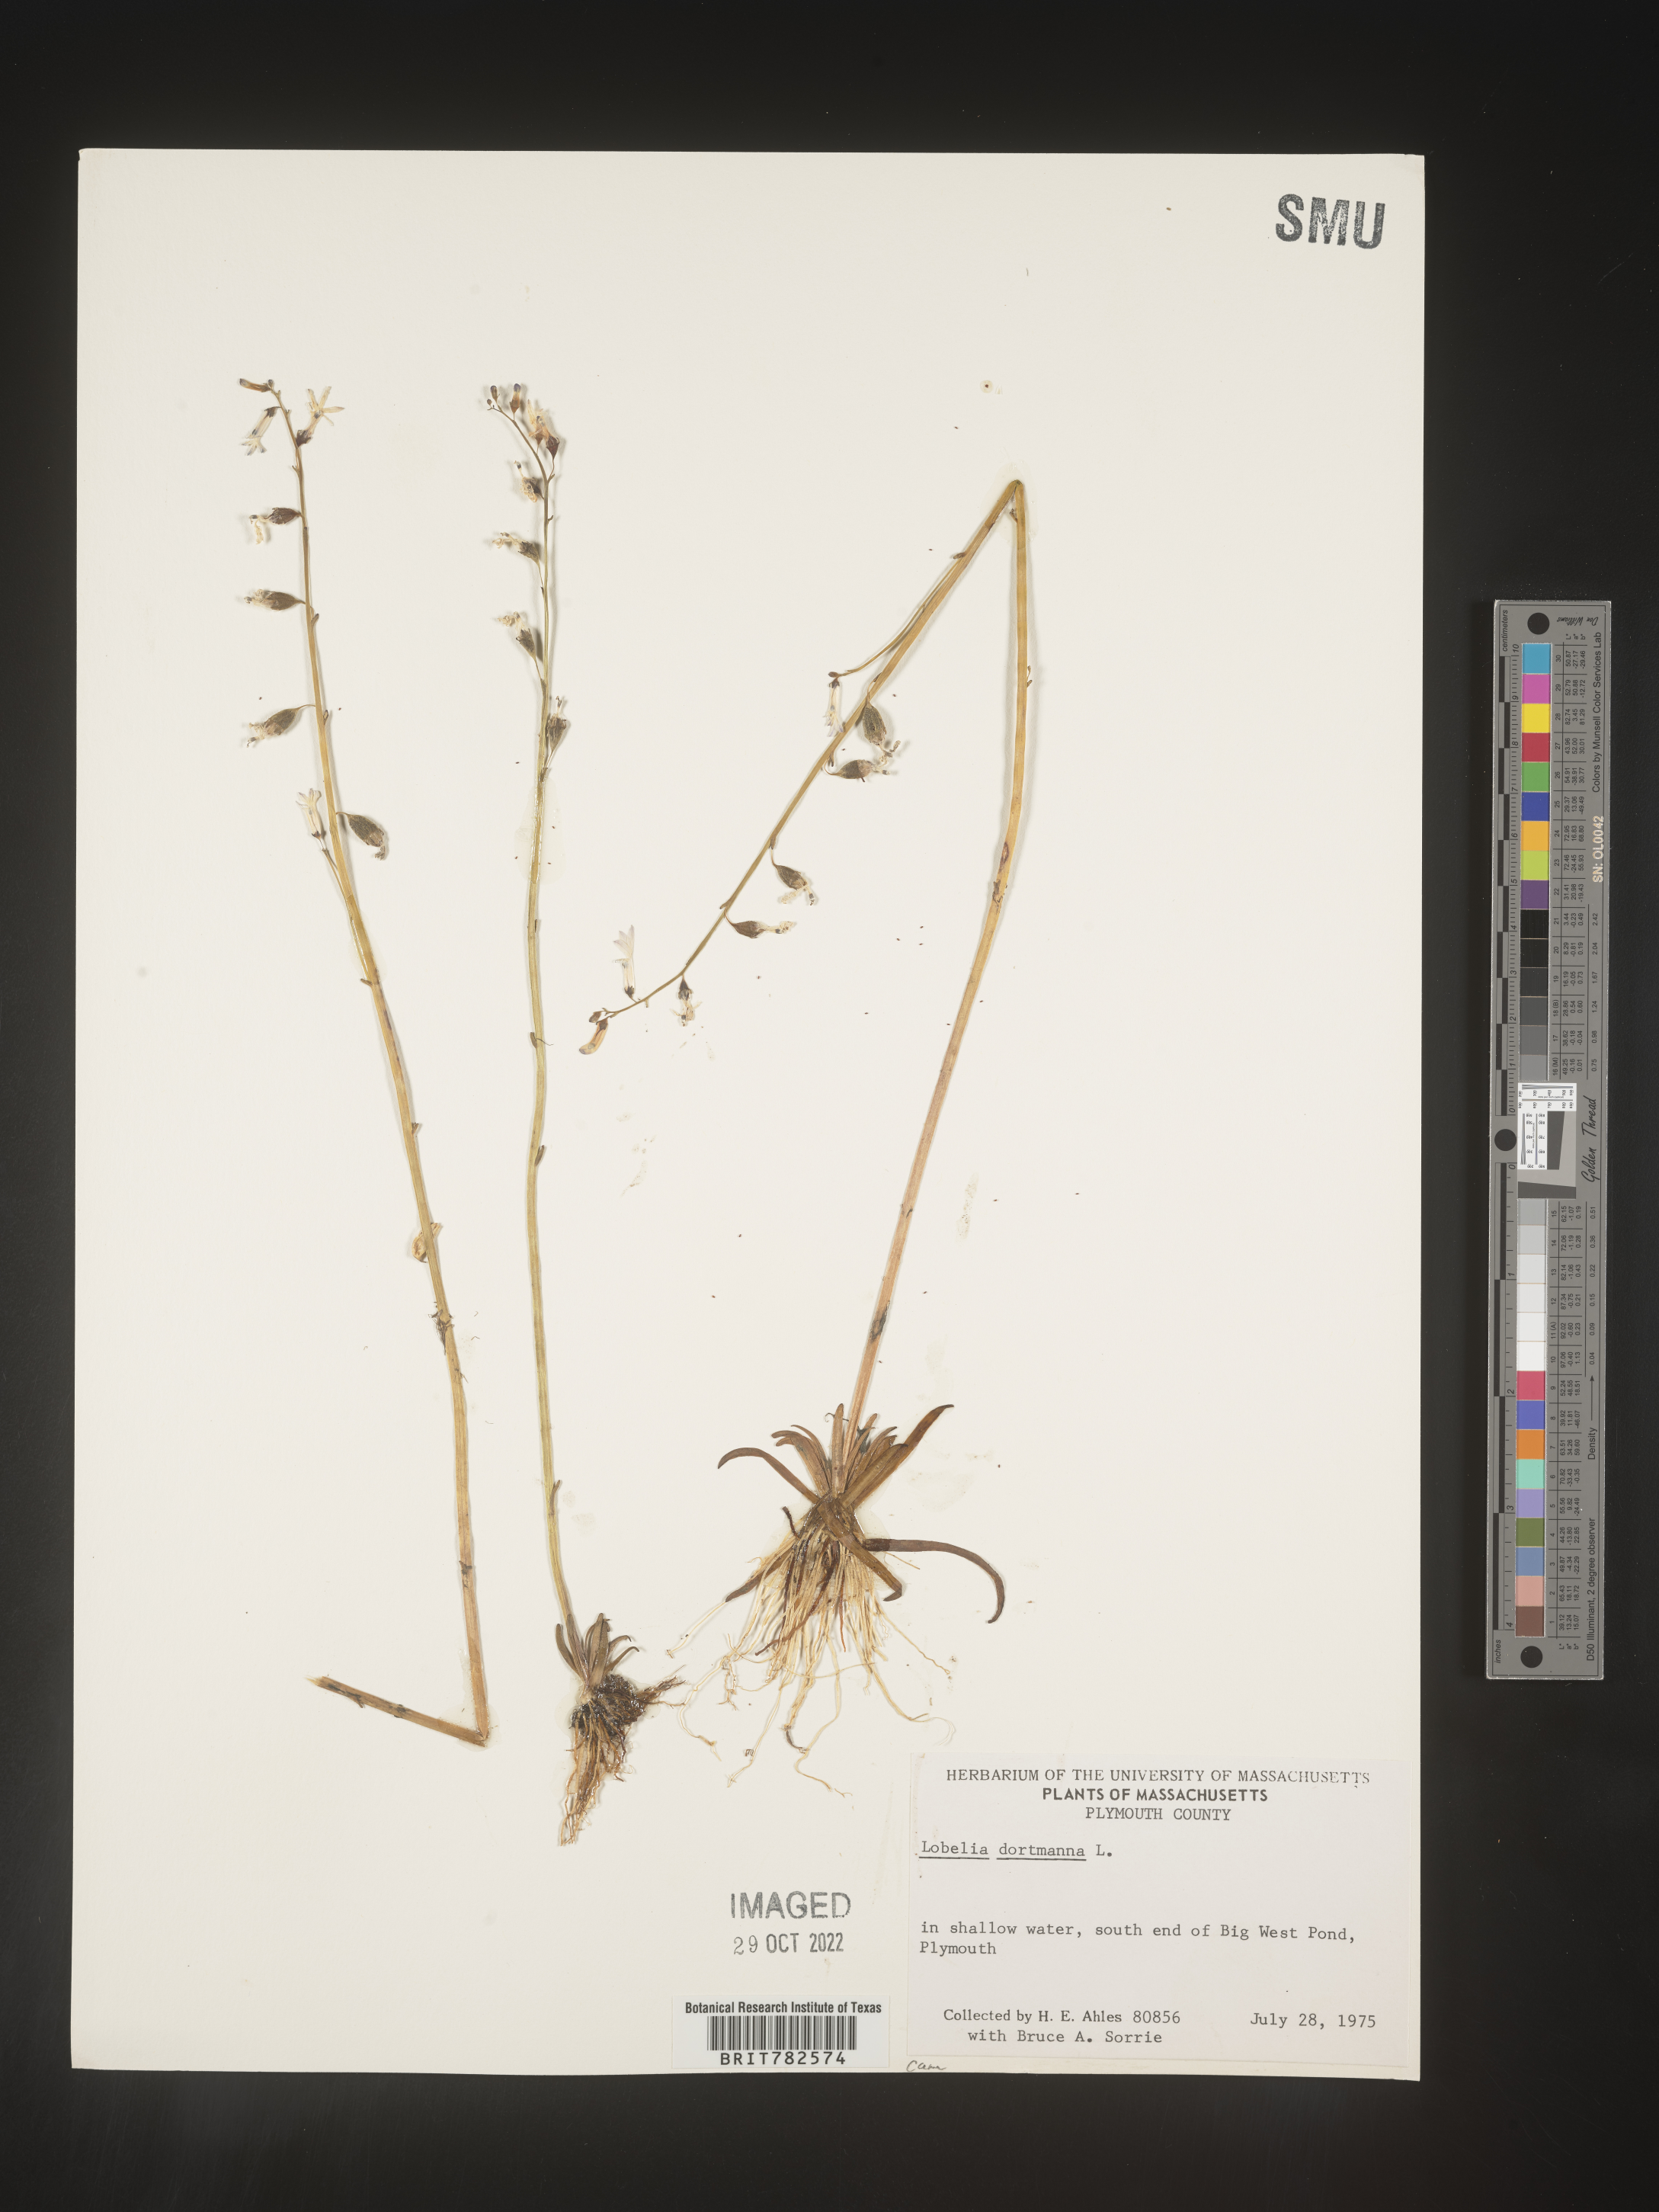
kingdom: Plantae
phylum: Tracheophyta
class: Magnoliopsida
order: Asterales
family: Campanulaceae
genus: Lobelia
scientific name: Lobelia
